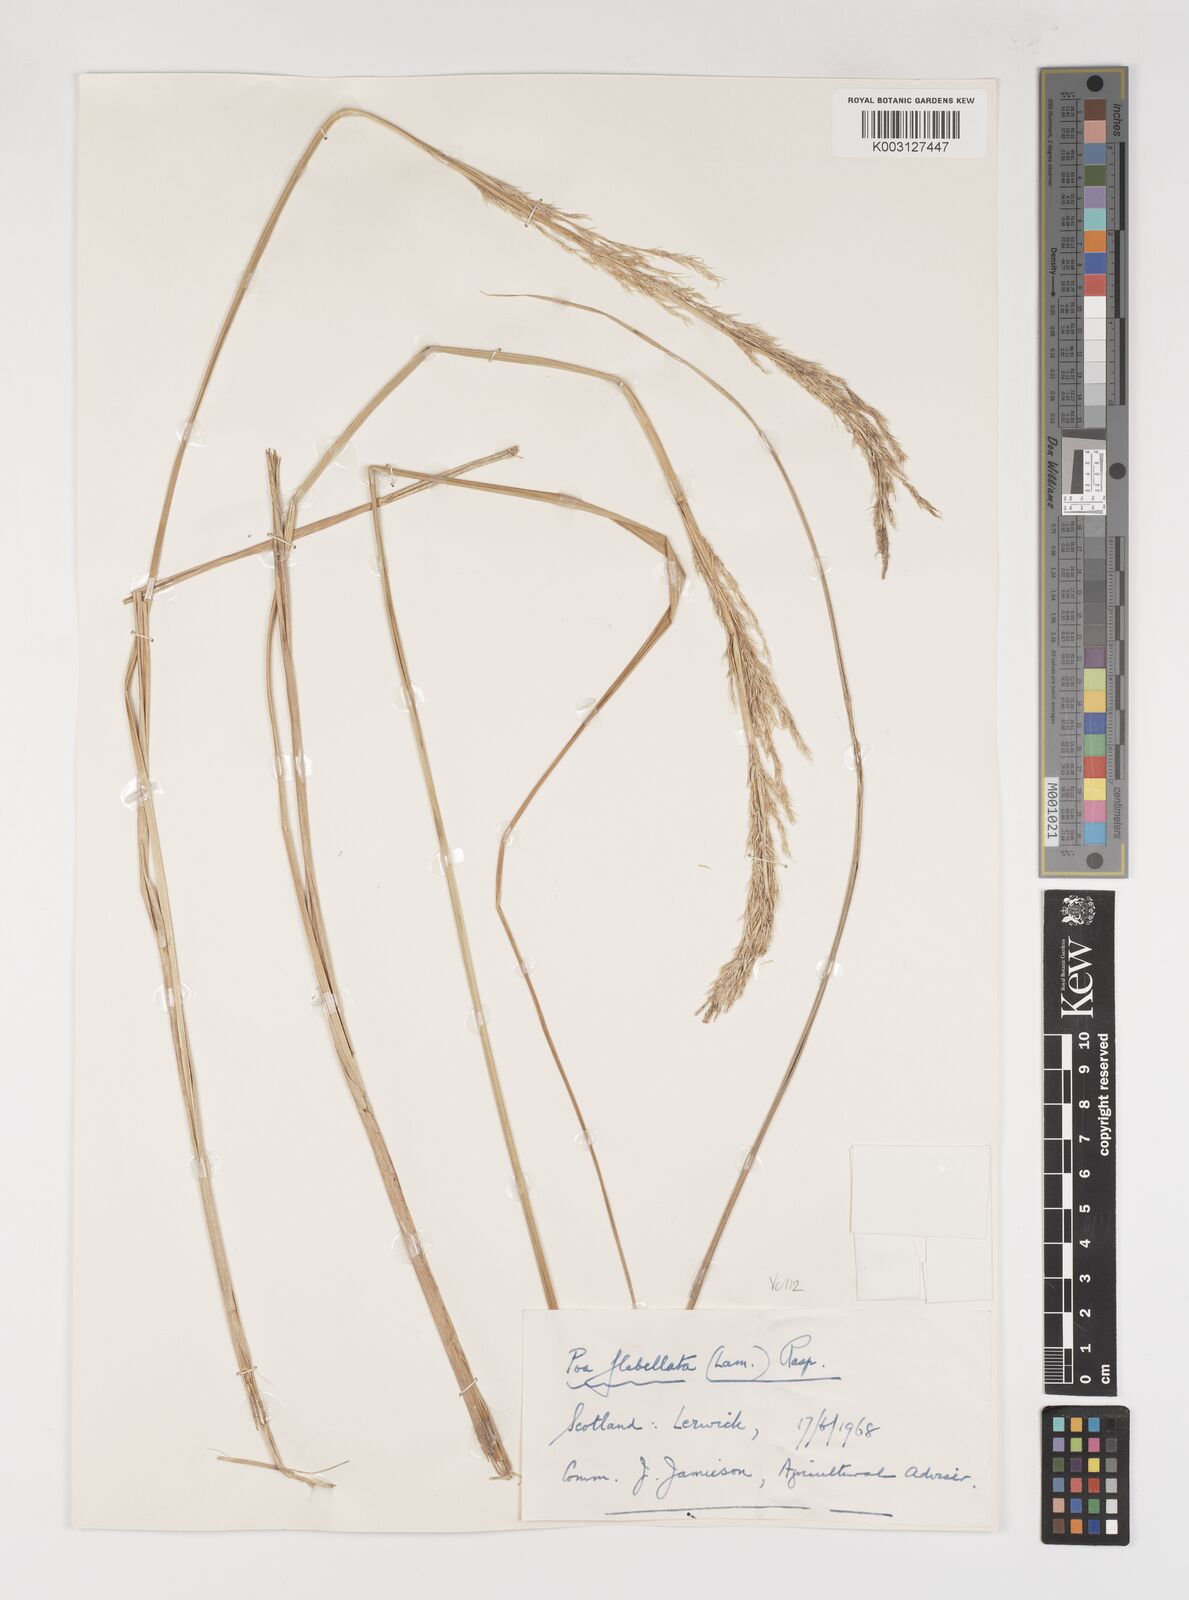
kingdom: Plantae
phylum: Tracheophyta
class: Liliopsida
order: Poales
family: Poaceae
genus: Poa
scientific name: Poa flabellata
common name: Tussac-grass
